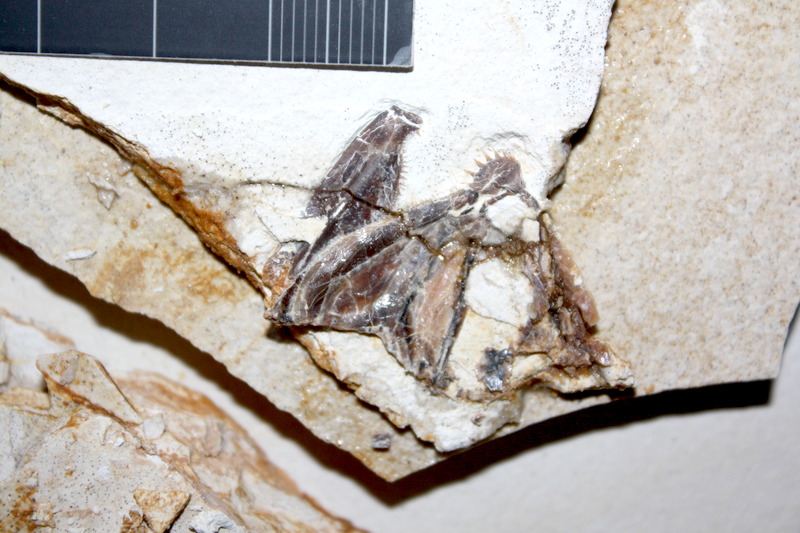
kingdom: Animalia
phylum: Chordata
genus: Thrissops
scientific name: Thrissops formosus
